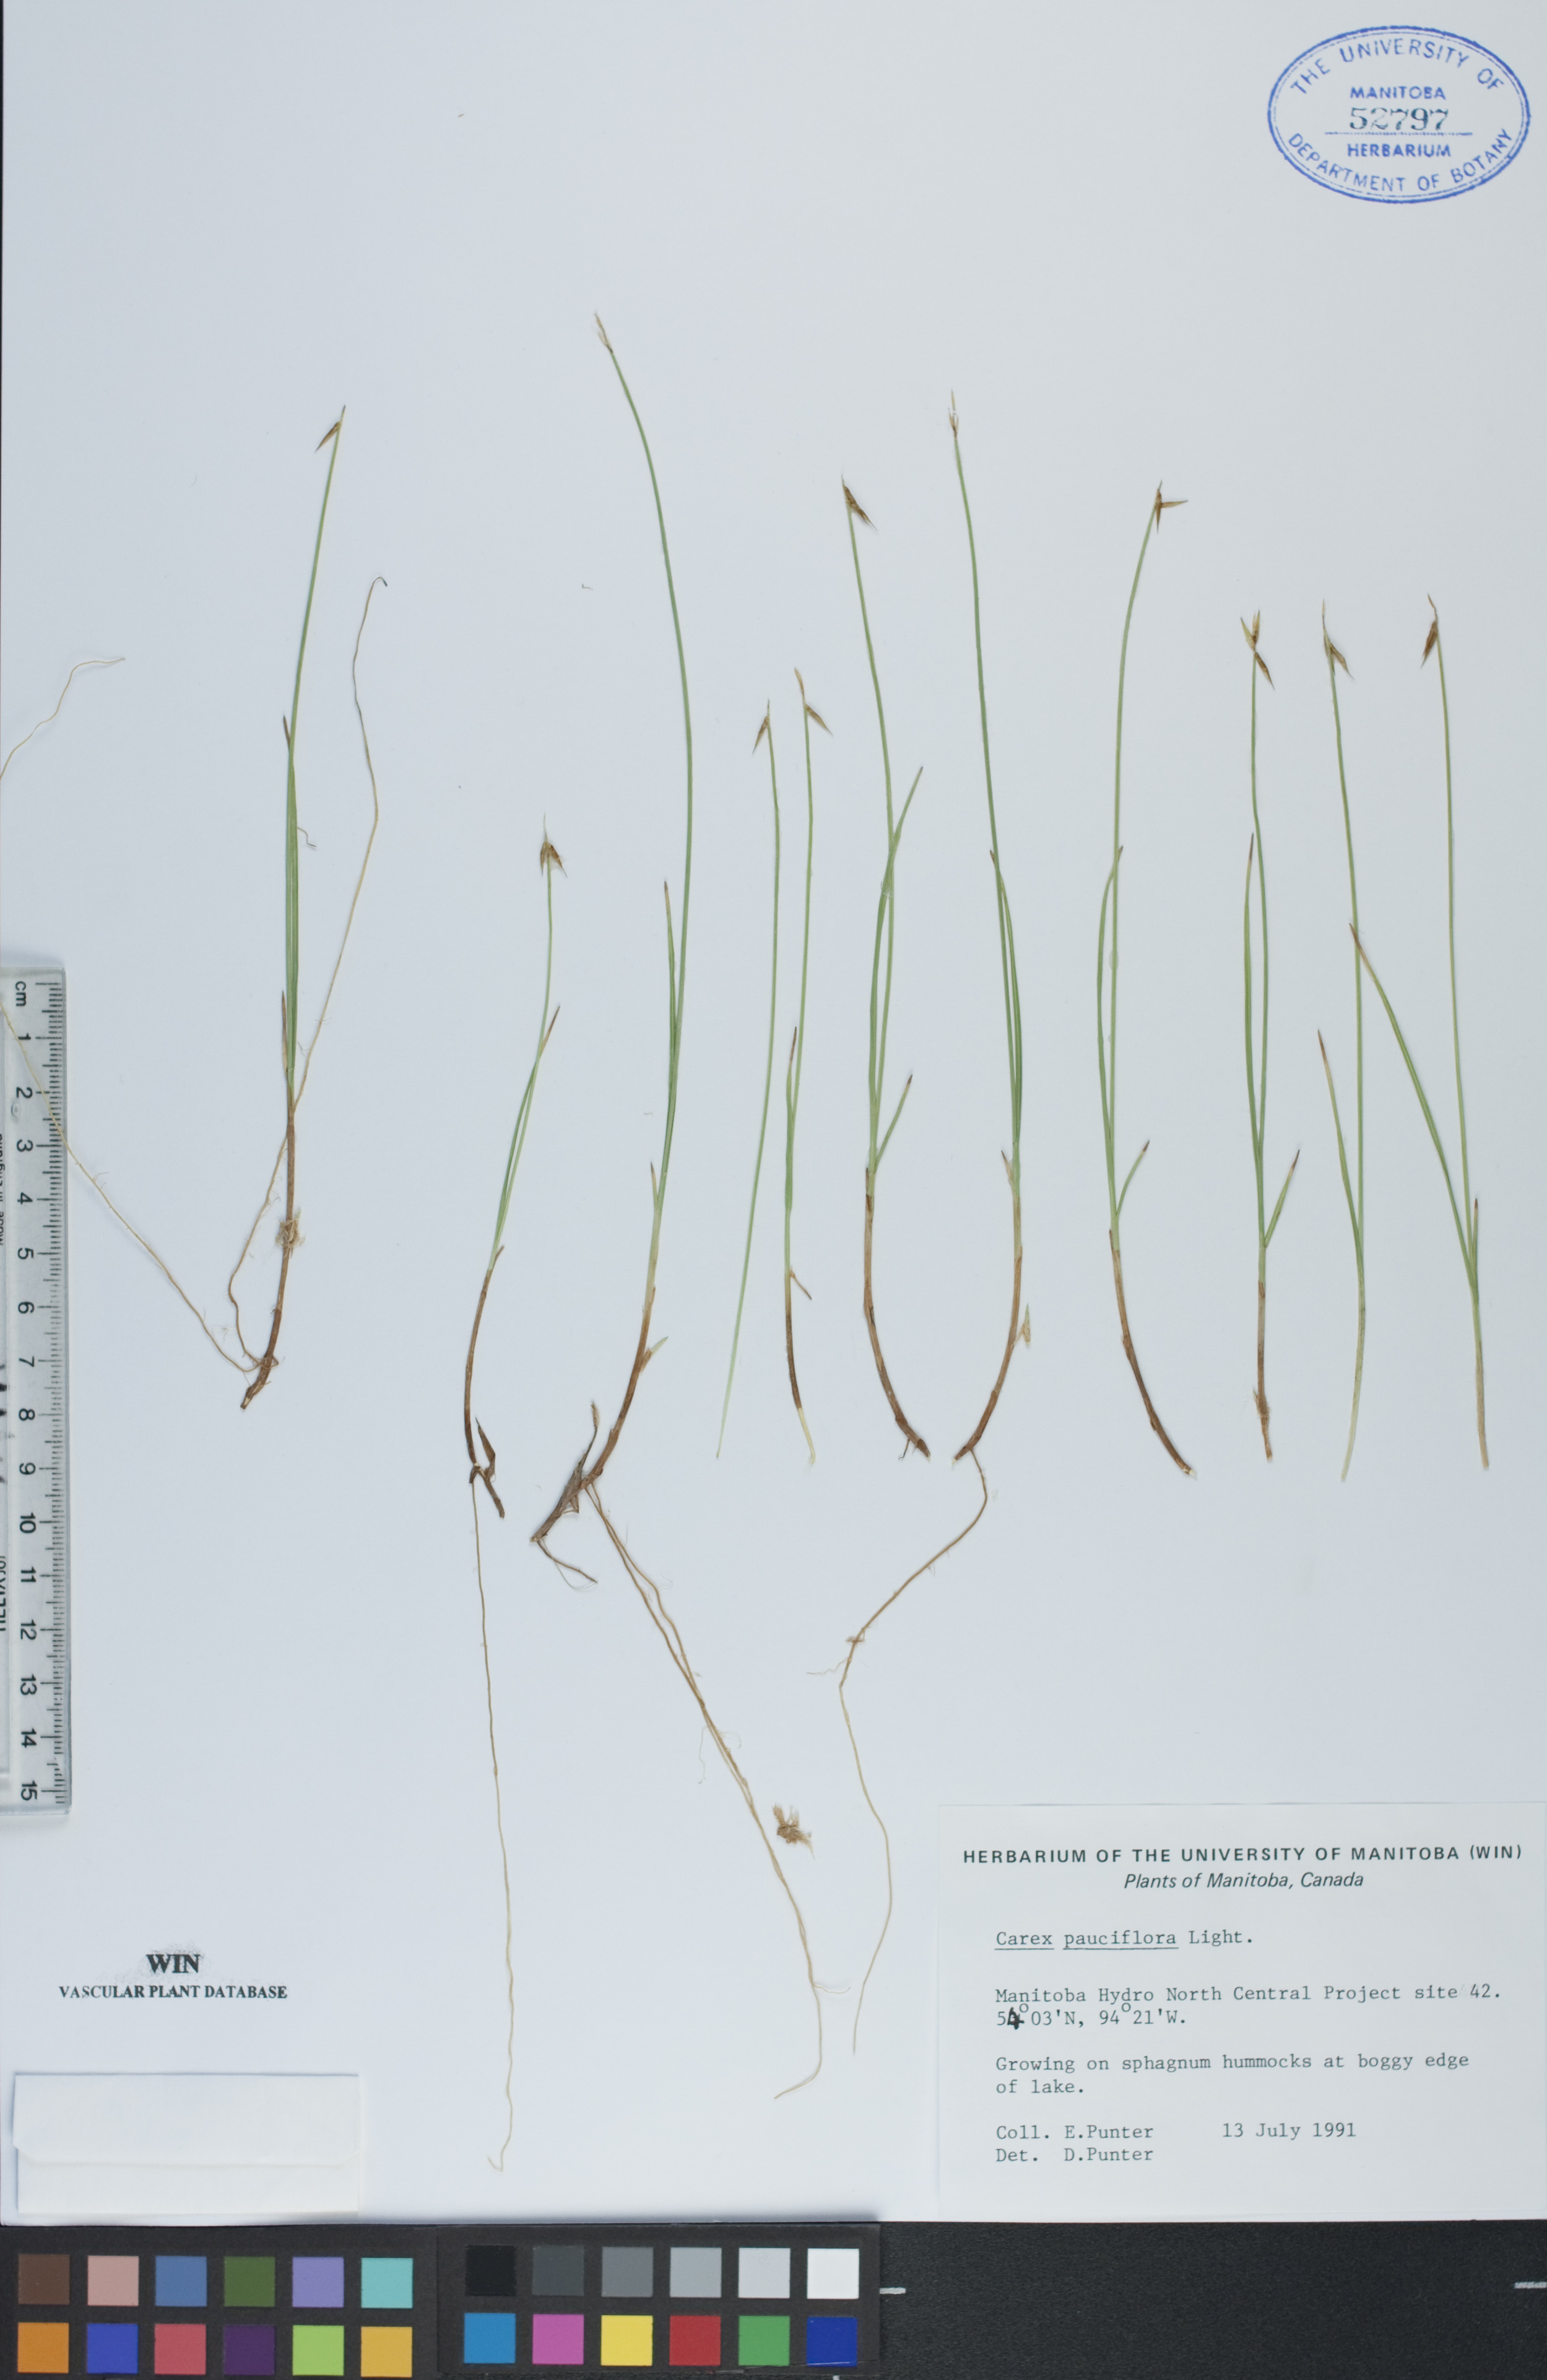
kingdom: Plantae
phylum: Tracheophyta
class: Liliopsida
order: Poales
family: Cyperaceae
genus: Carex
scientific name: Carex pauciflora
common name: Few-flowered sedge
